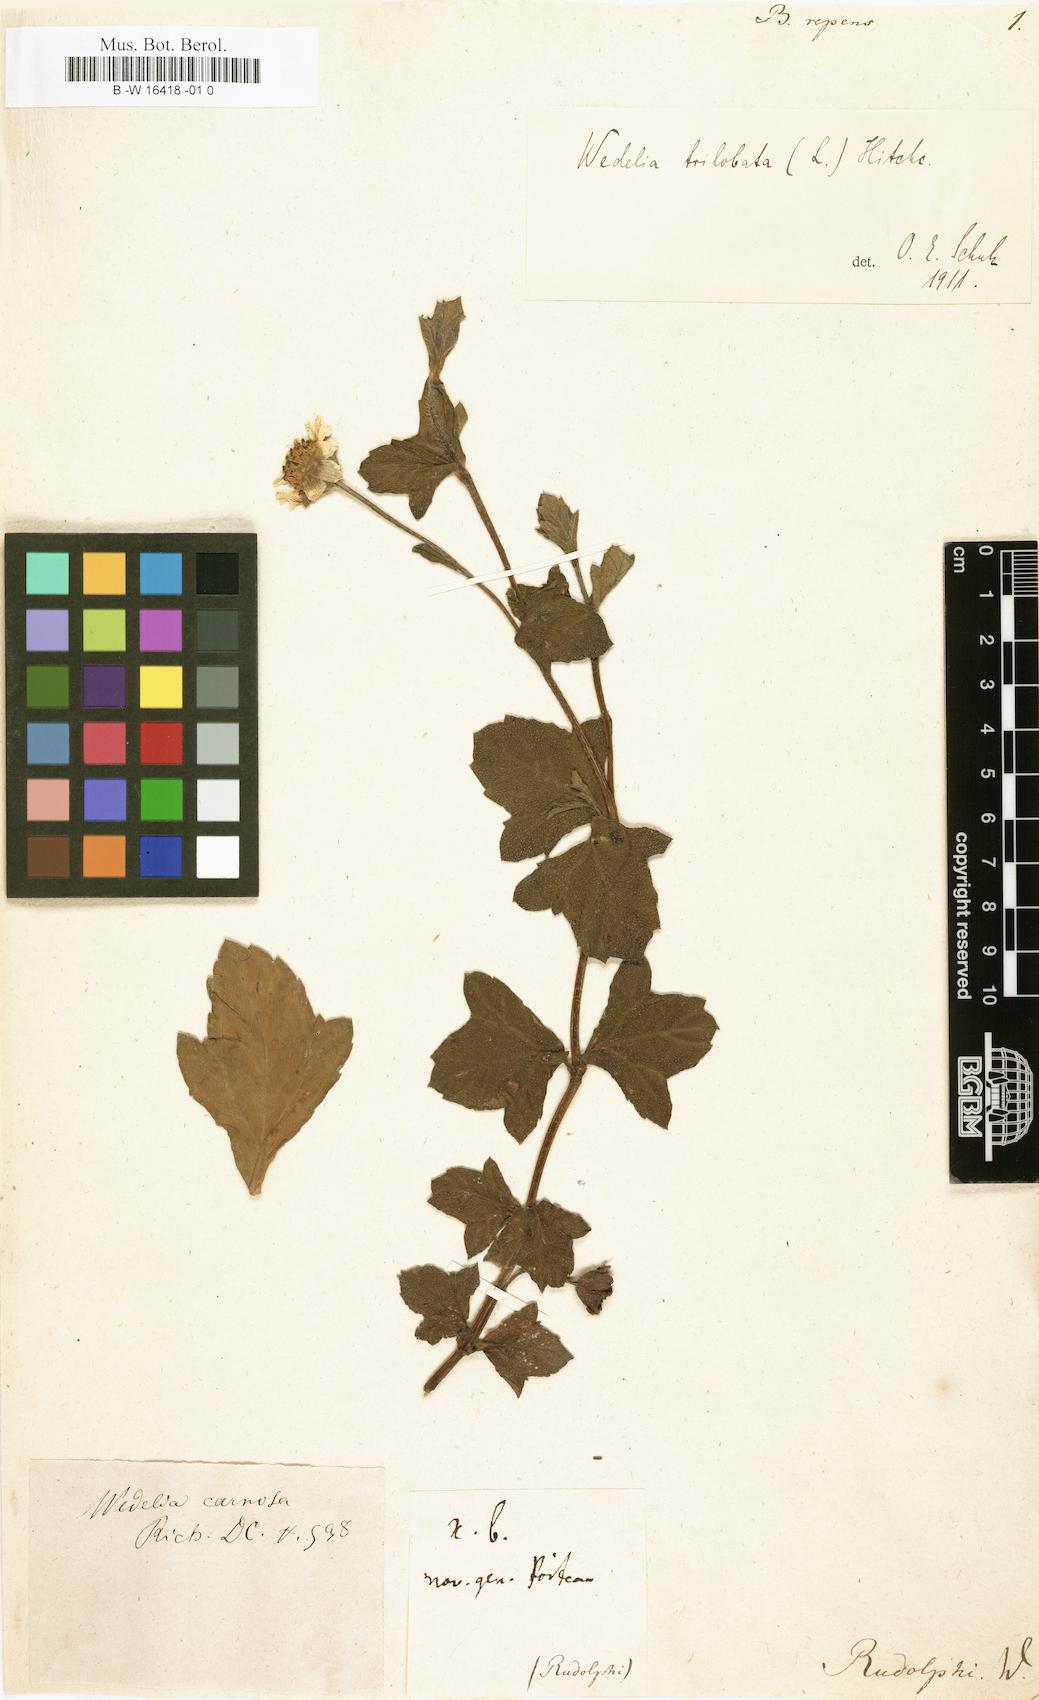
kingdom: Plantae
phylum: Tracheophyta
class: Magnoliopsida
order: Asterales
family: Asteraceae
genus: Sphagneticola
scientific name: Sphagneticola trilobata
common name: Bay biscayne creeping-oxeye
